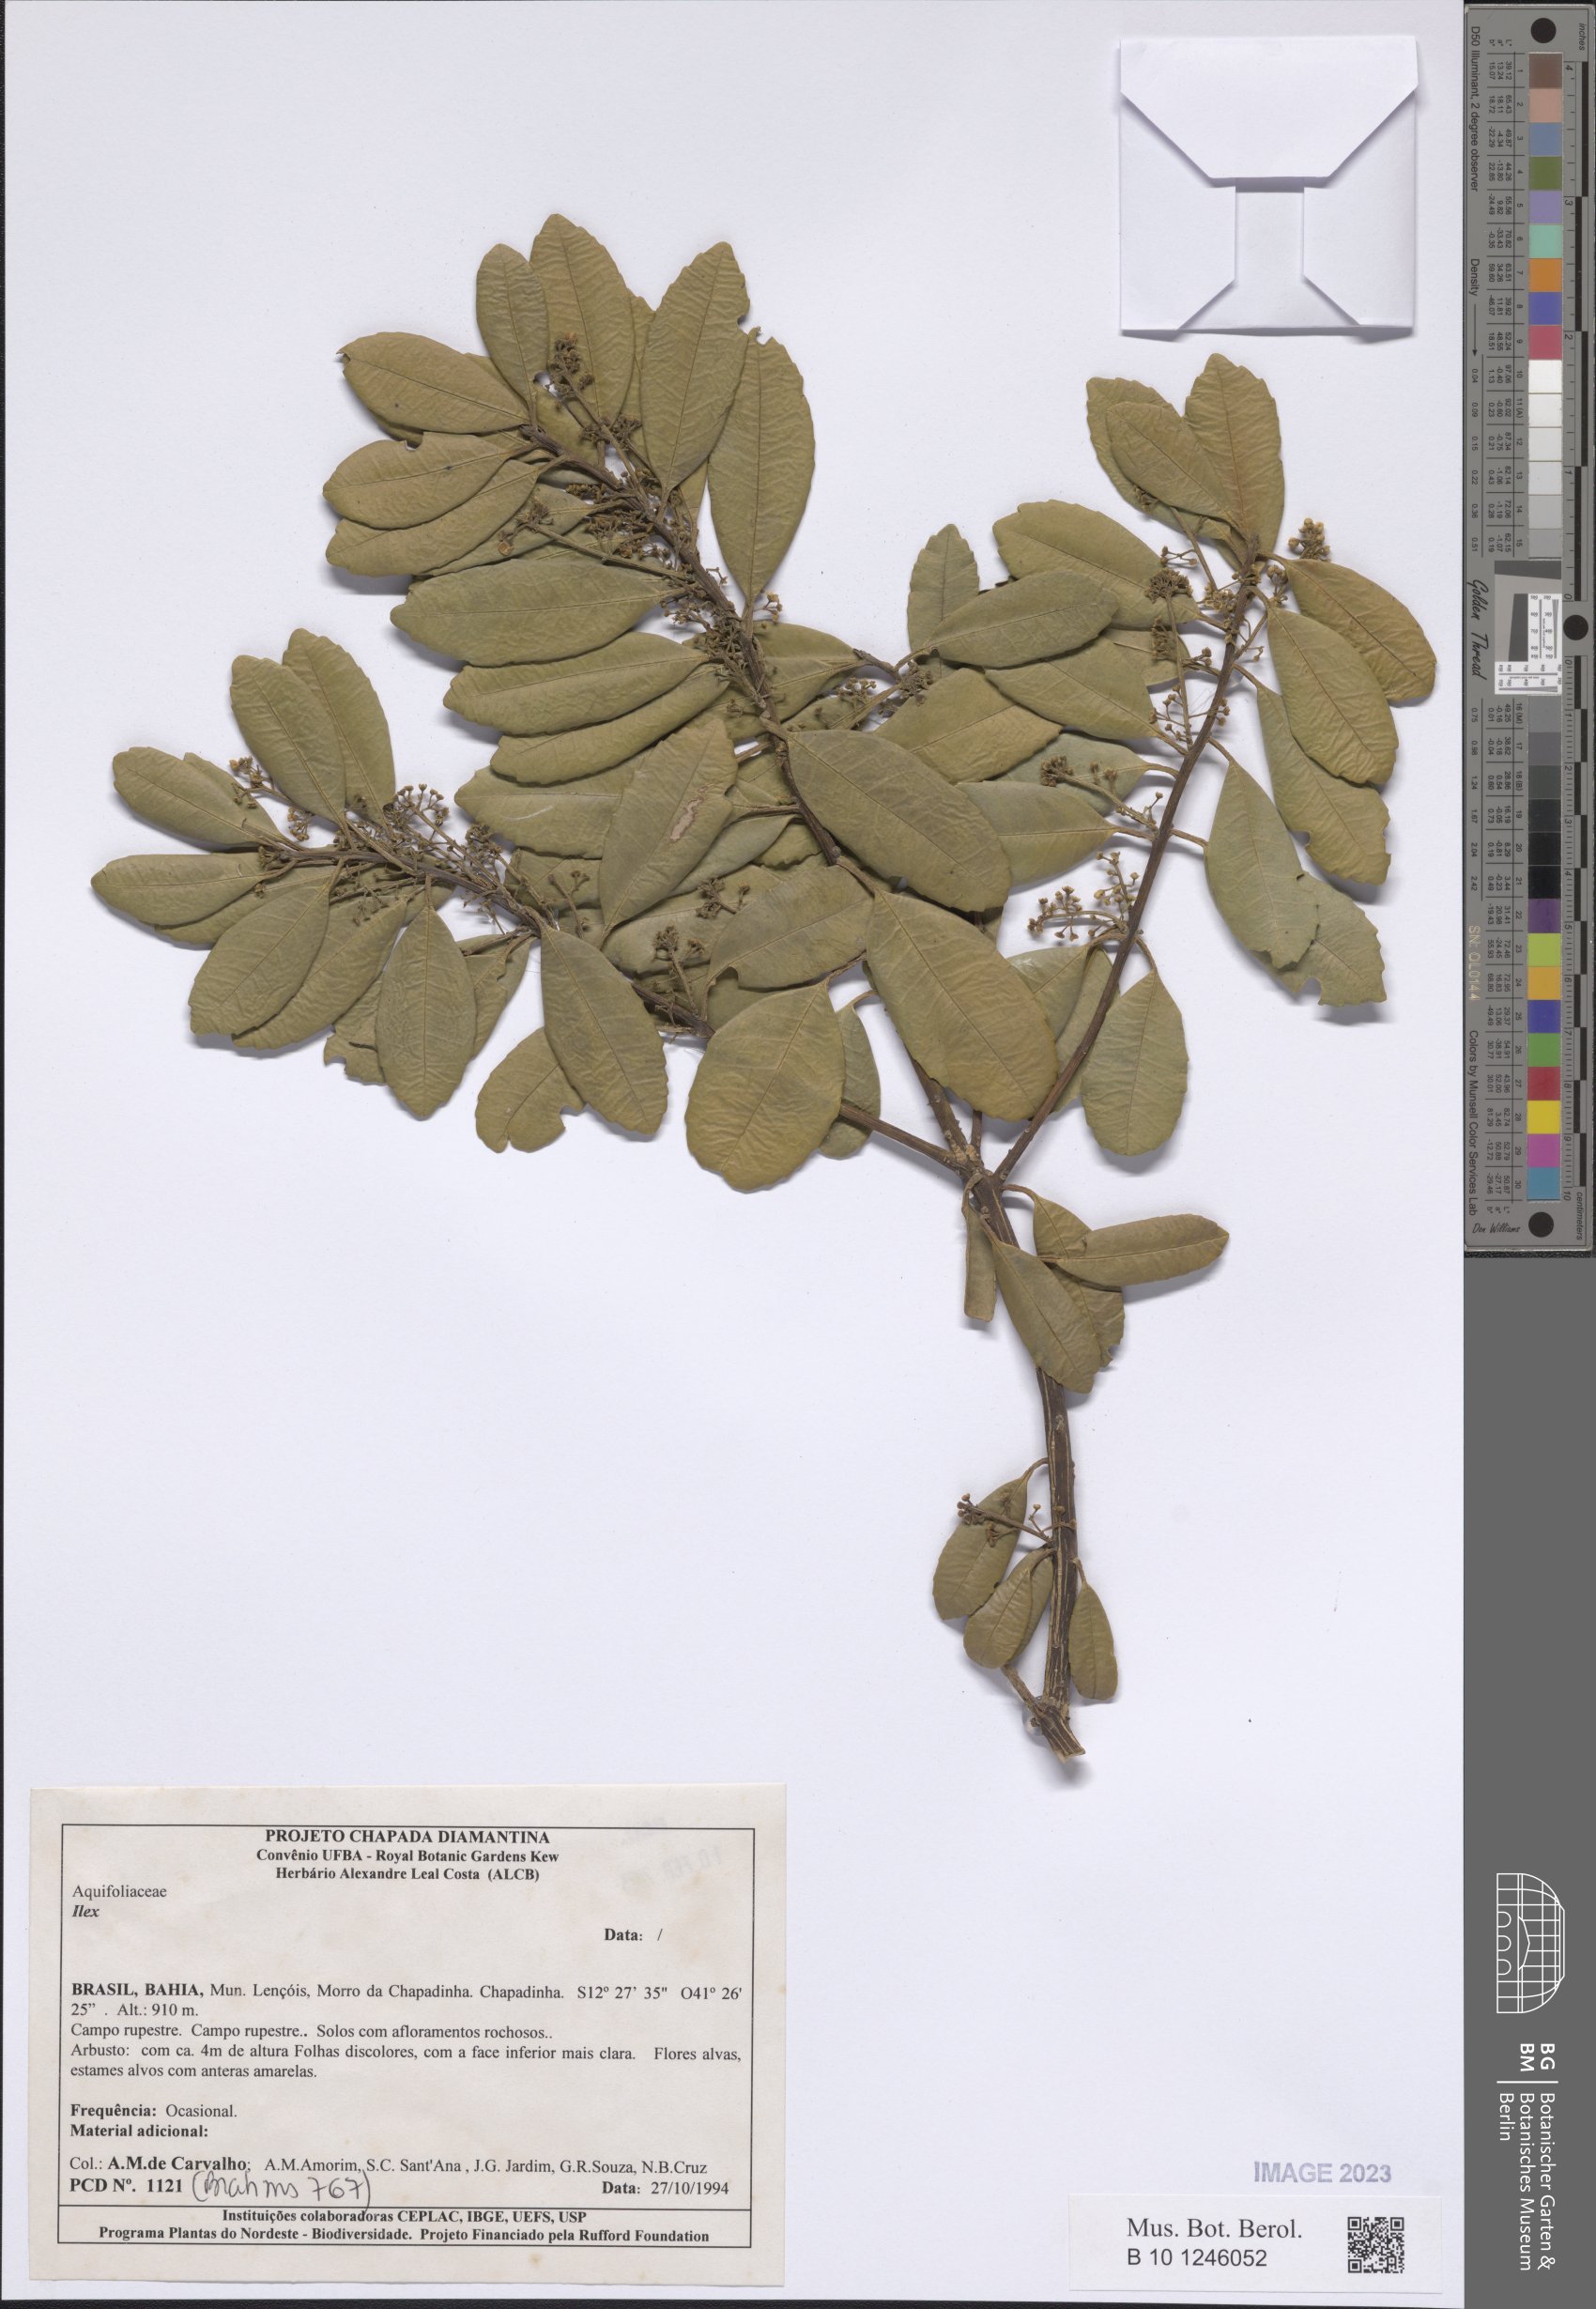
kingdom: Plantae
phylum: Tracheophyta
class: Magnoliopsida
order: Aquifoliales
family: Aquifoliaceae
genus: Ilex
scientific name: Ilex
